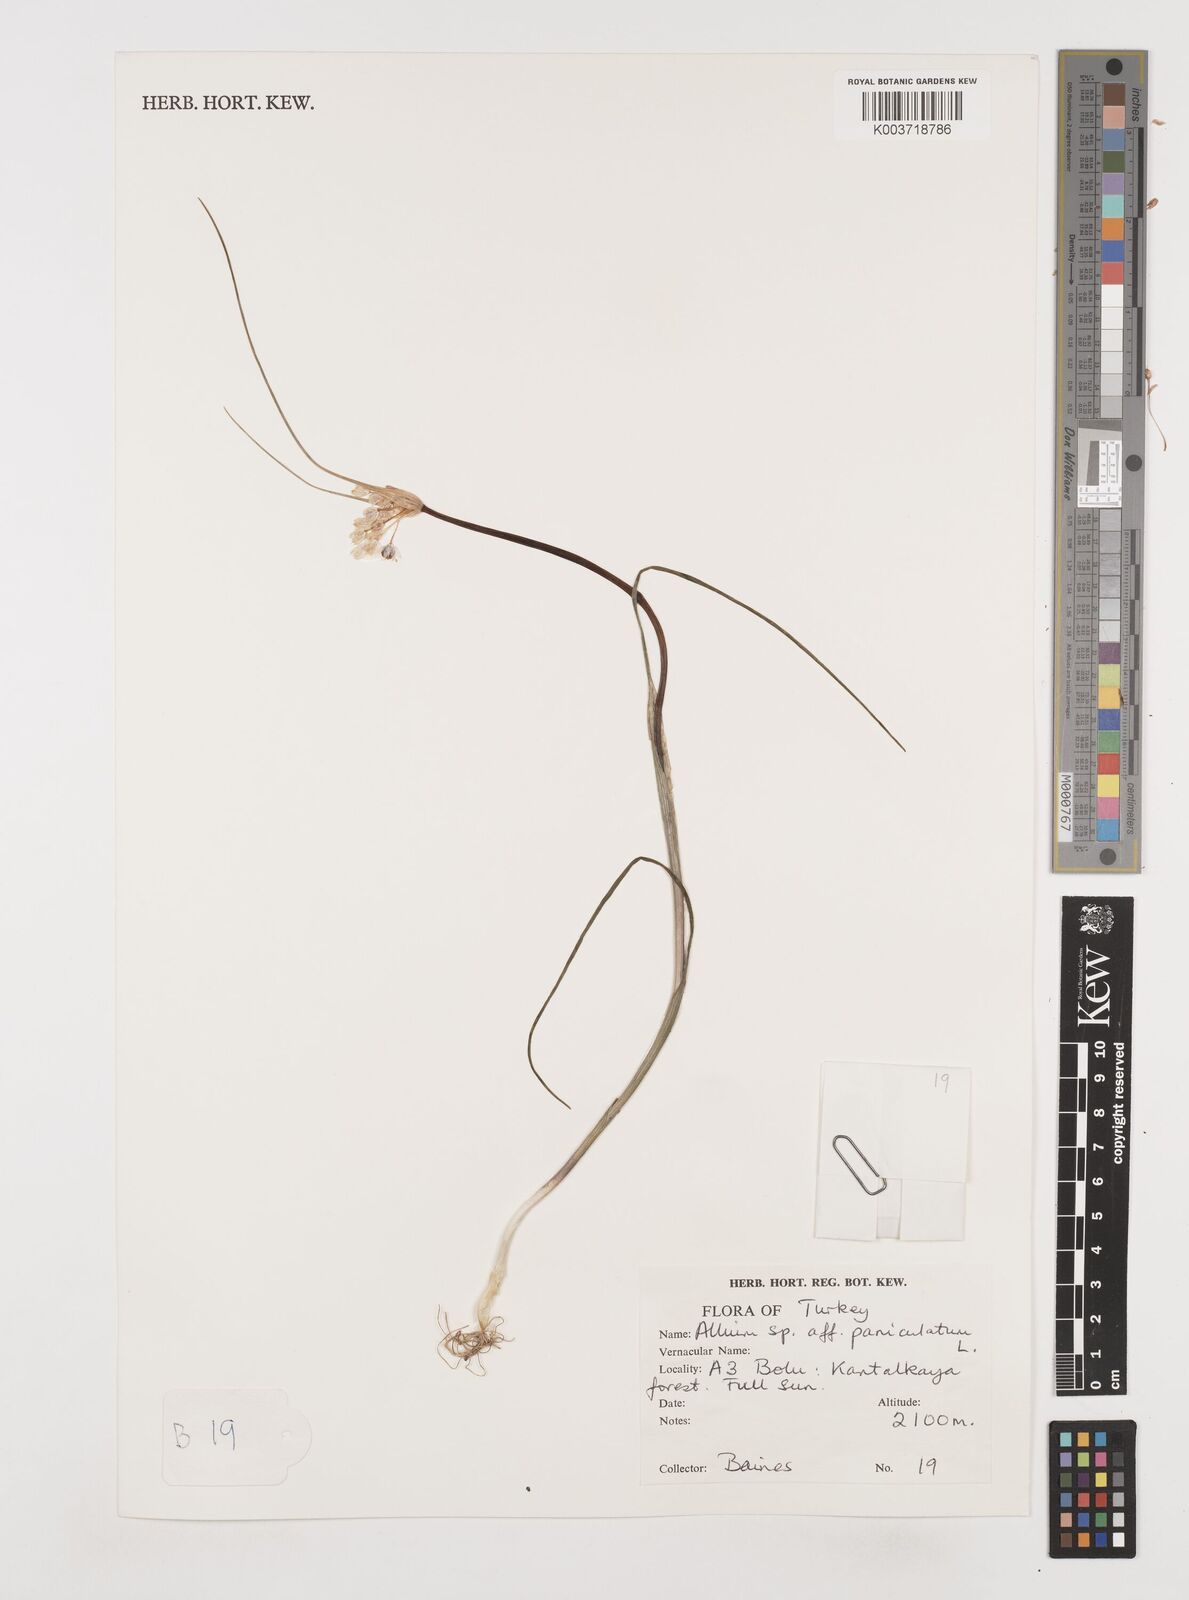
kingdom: Plantae
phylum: Tracheophyta
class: Liliopsida
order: Asparagales
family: Amaryllidaceae
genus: Allium
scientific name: Allium paniculatum
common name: Pale garlic
